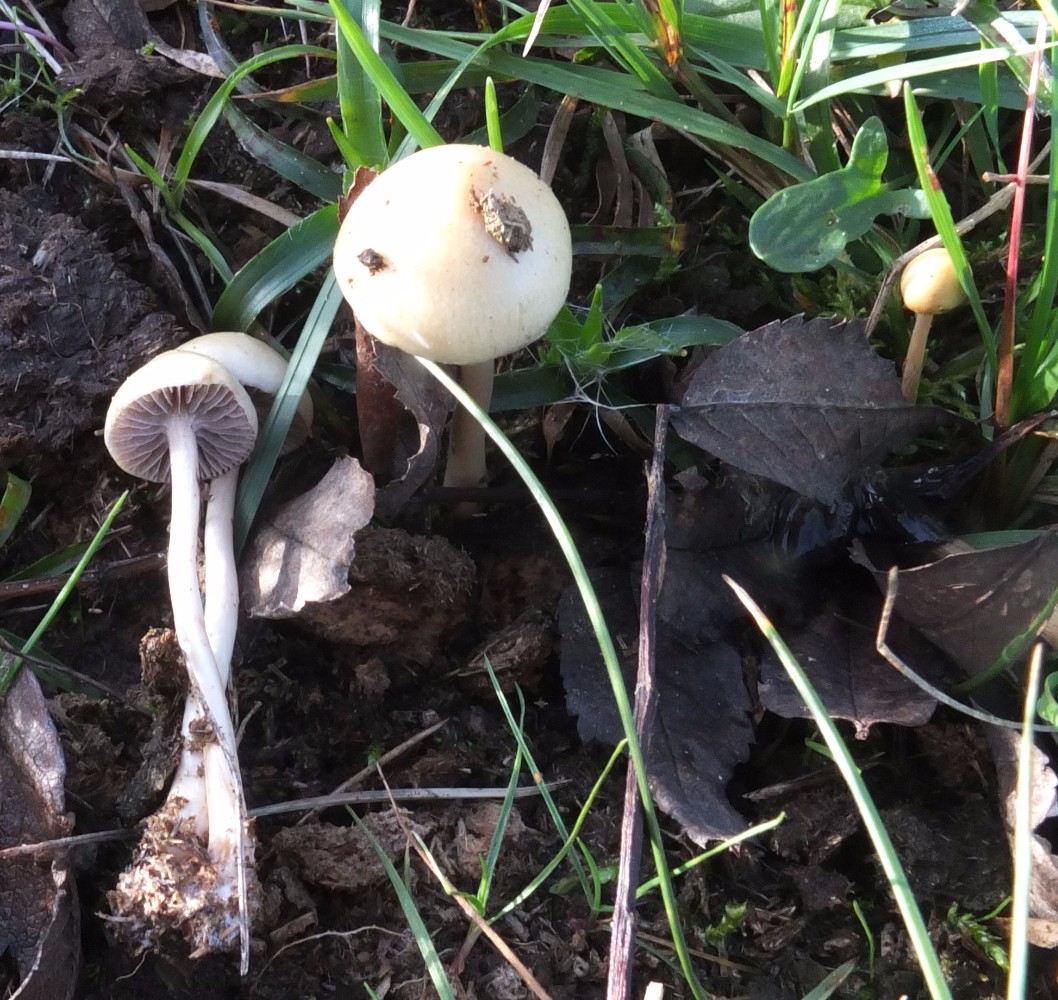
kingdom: Fungi
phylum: Basidiomycota
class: Agaricomycetes
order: Agaricales
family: Strophariaceae
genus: Protostropharia
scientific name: Protostropharia semiglobata
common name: halvkugleformet bredblad
